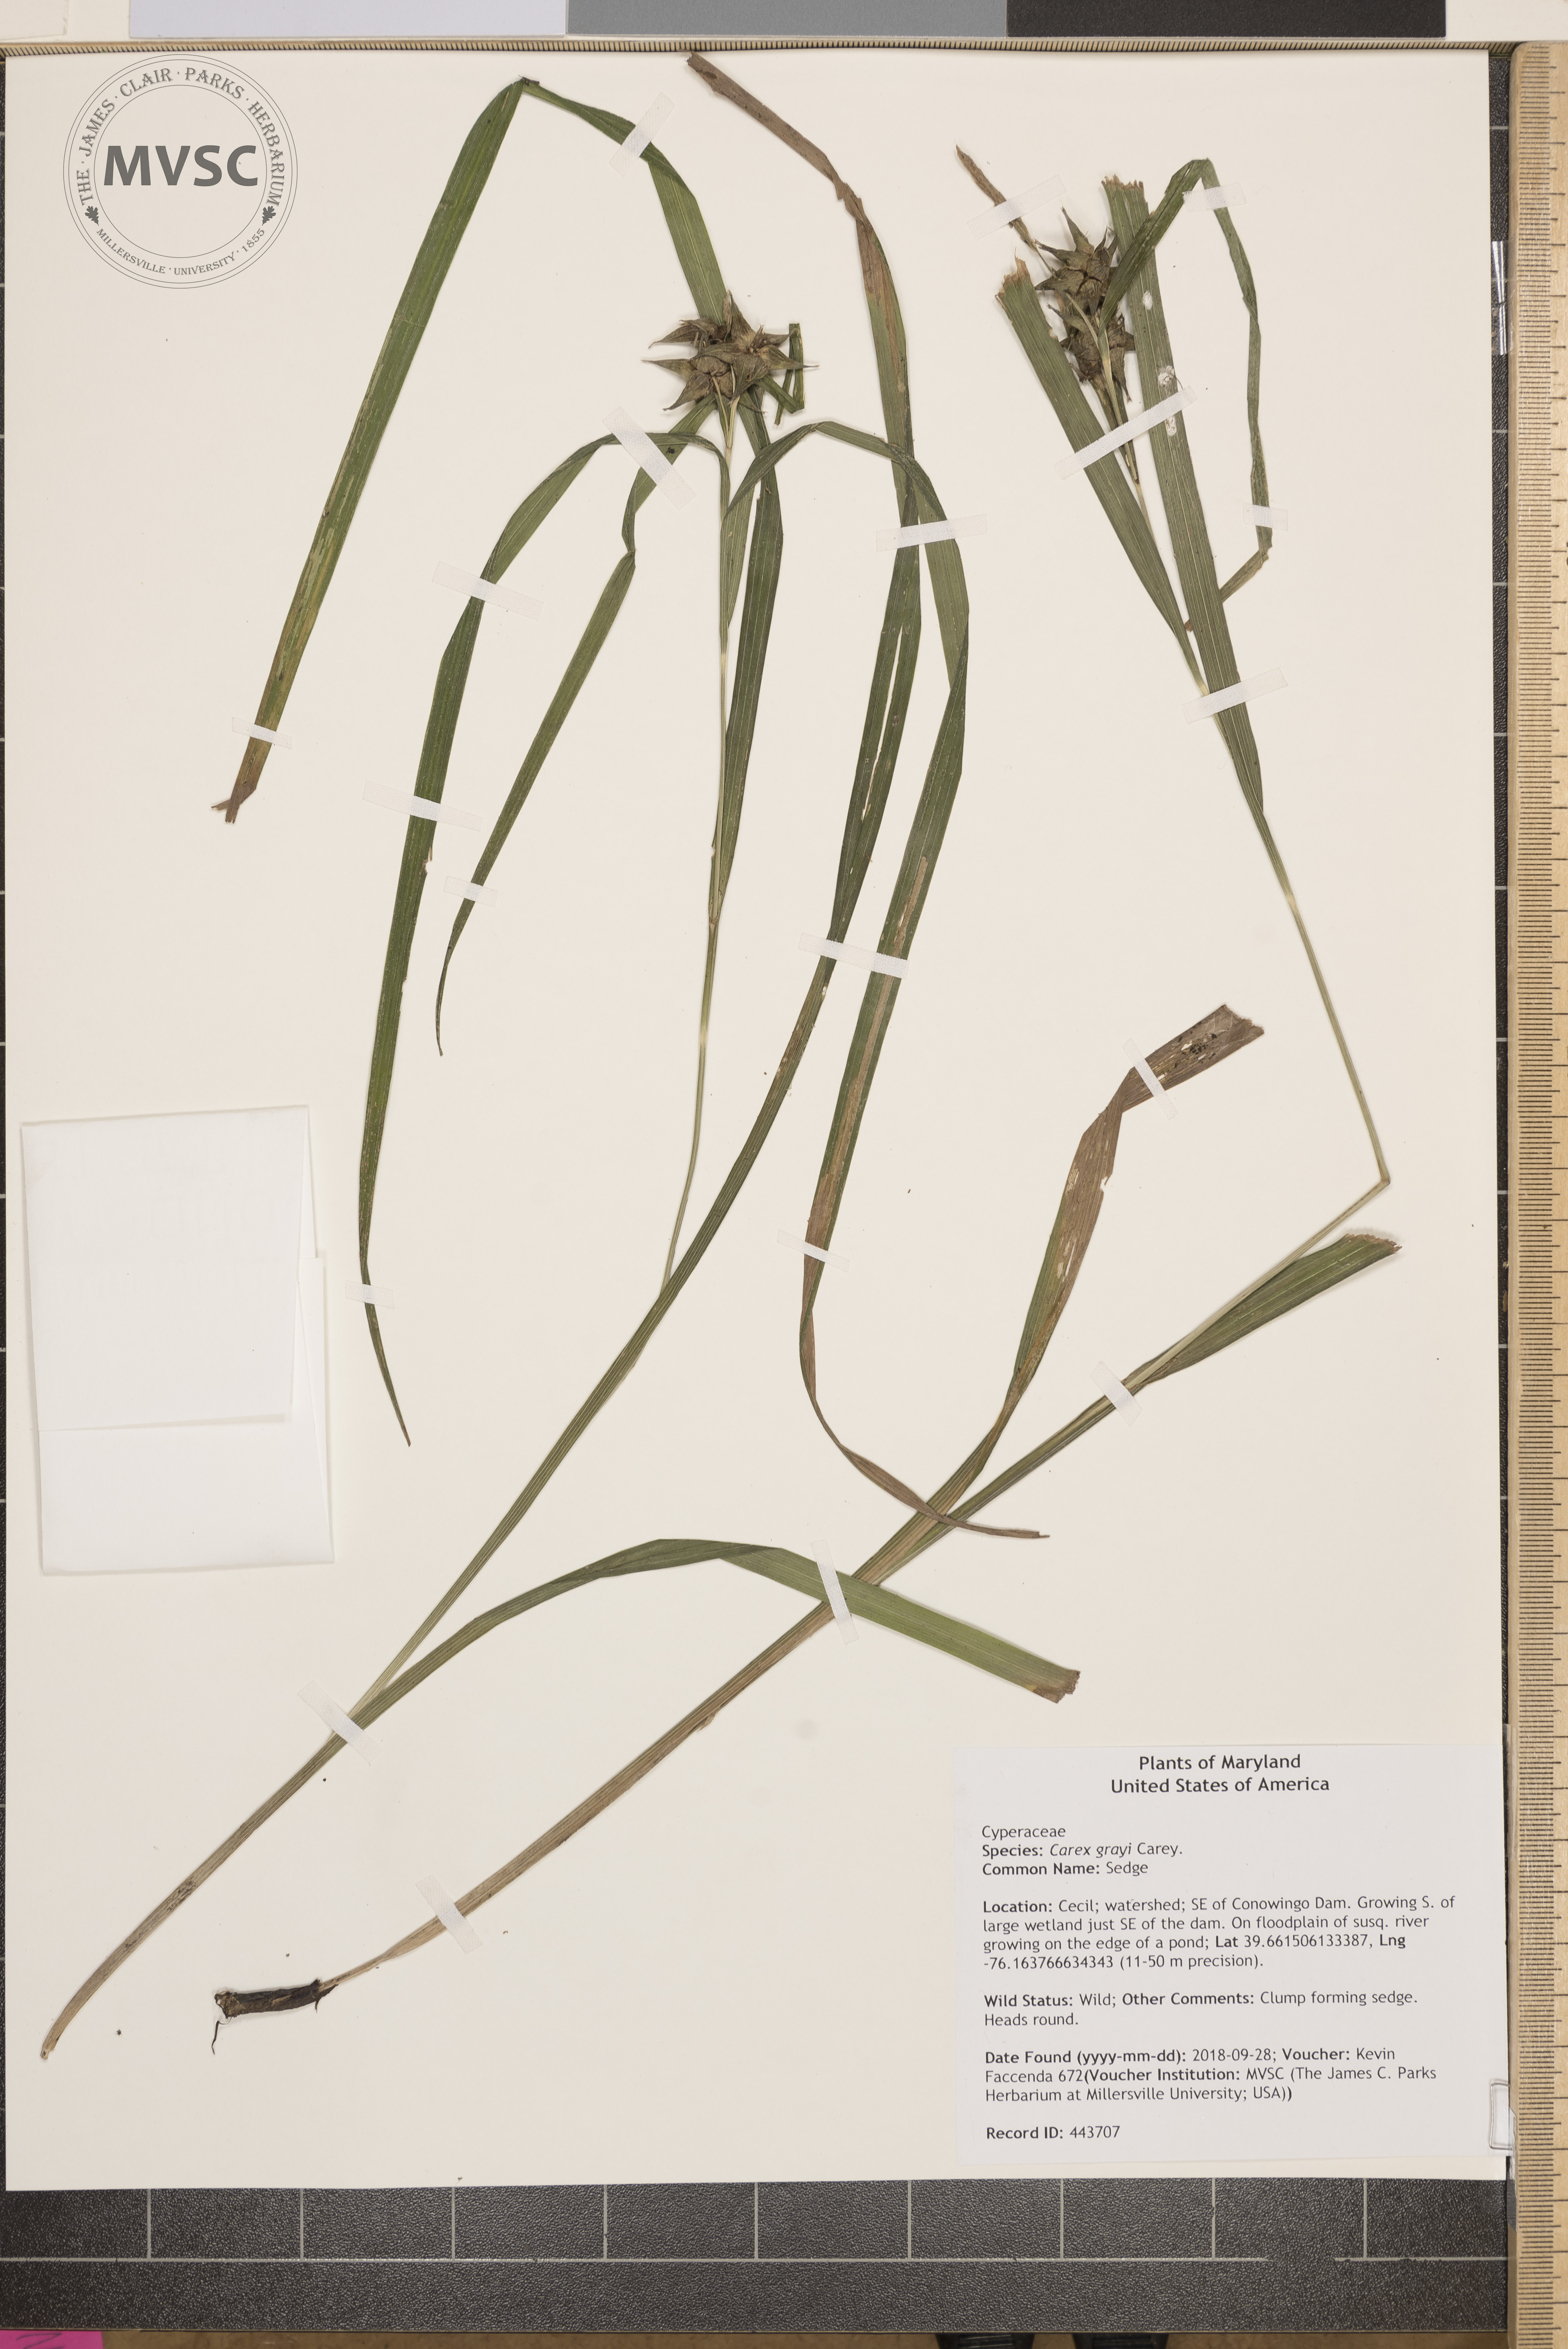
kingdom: Plantae
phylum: Tracheophyta
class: Liliopsida
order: Poales
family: Cyperaceae
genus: Carex
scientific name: Carex grayi
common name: Sedge
